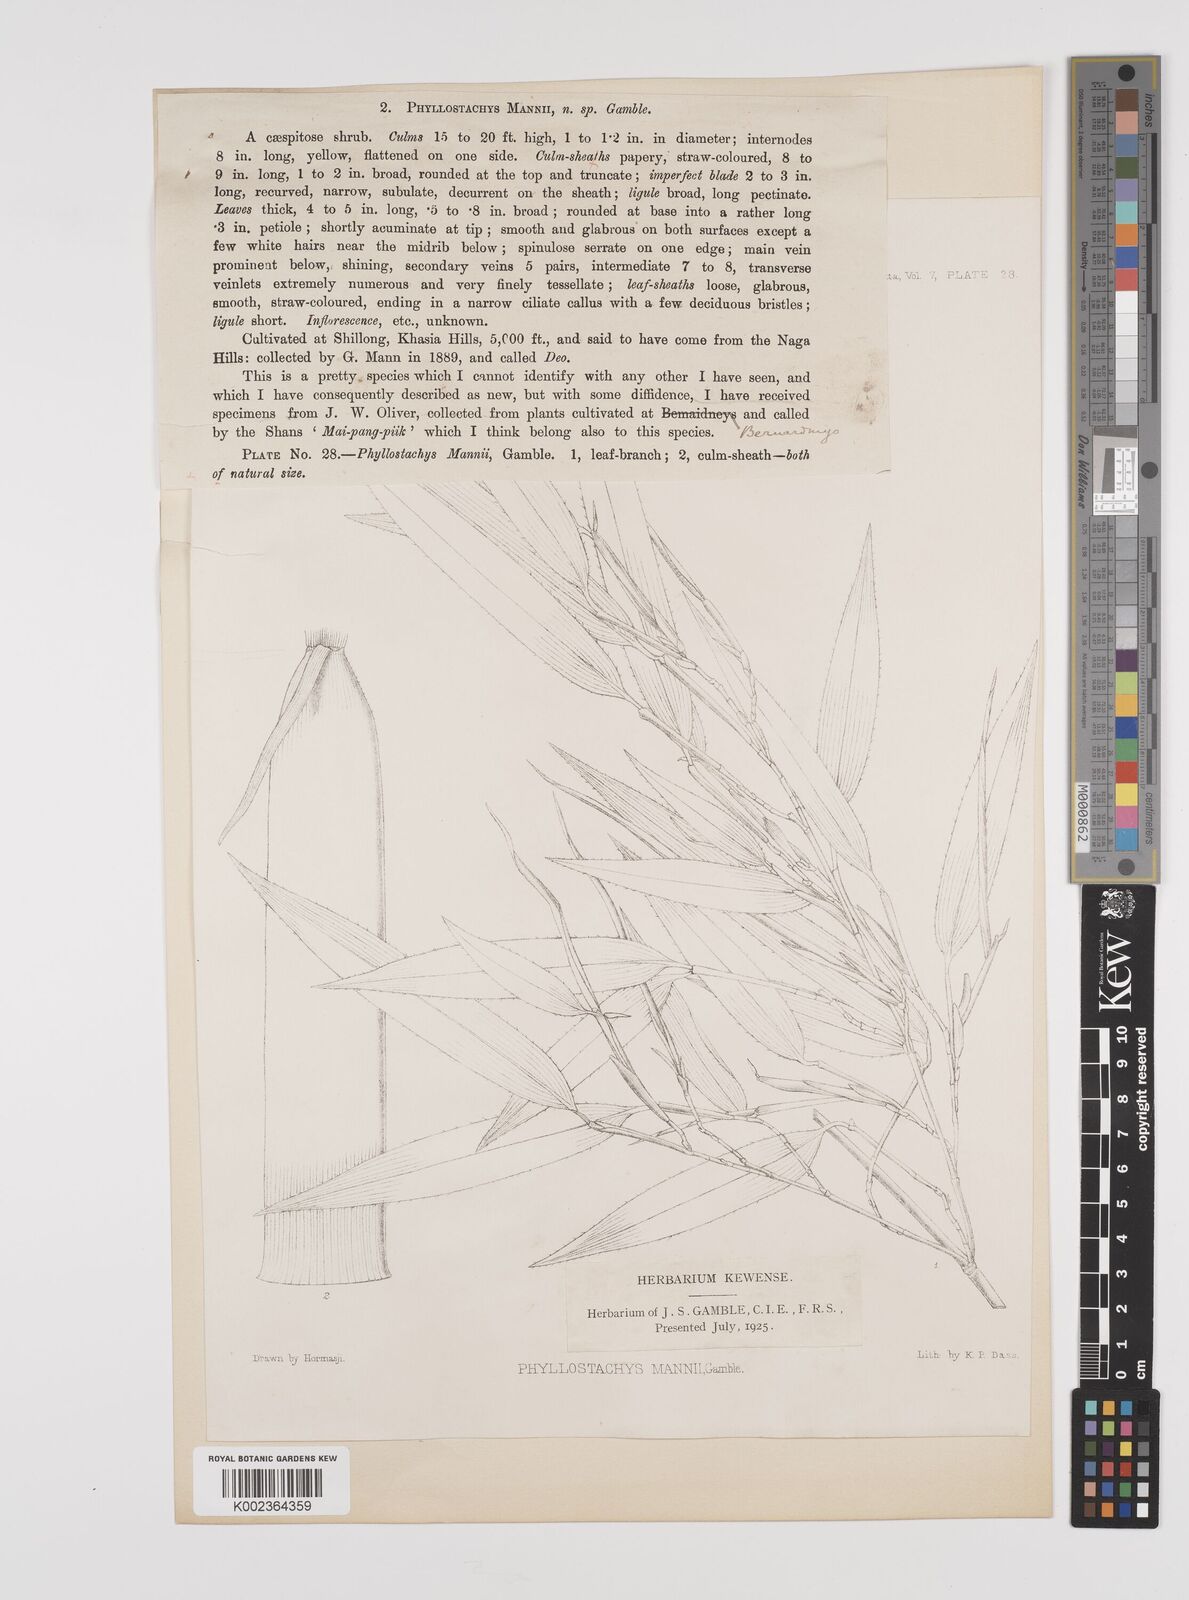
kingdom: Plantae
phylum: Tracheophyta
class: Liliopsida
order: Poales
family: Poaceae
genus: Phyllostachys
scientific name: Phyllostachys mannii
